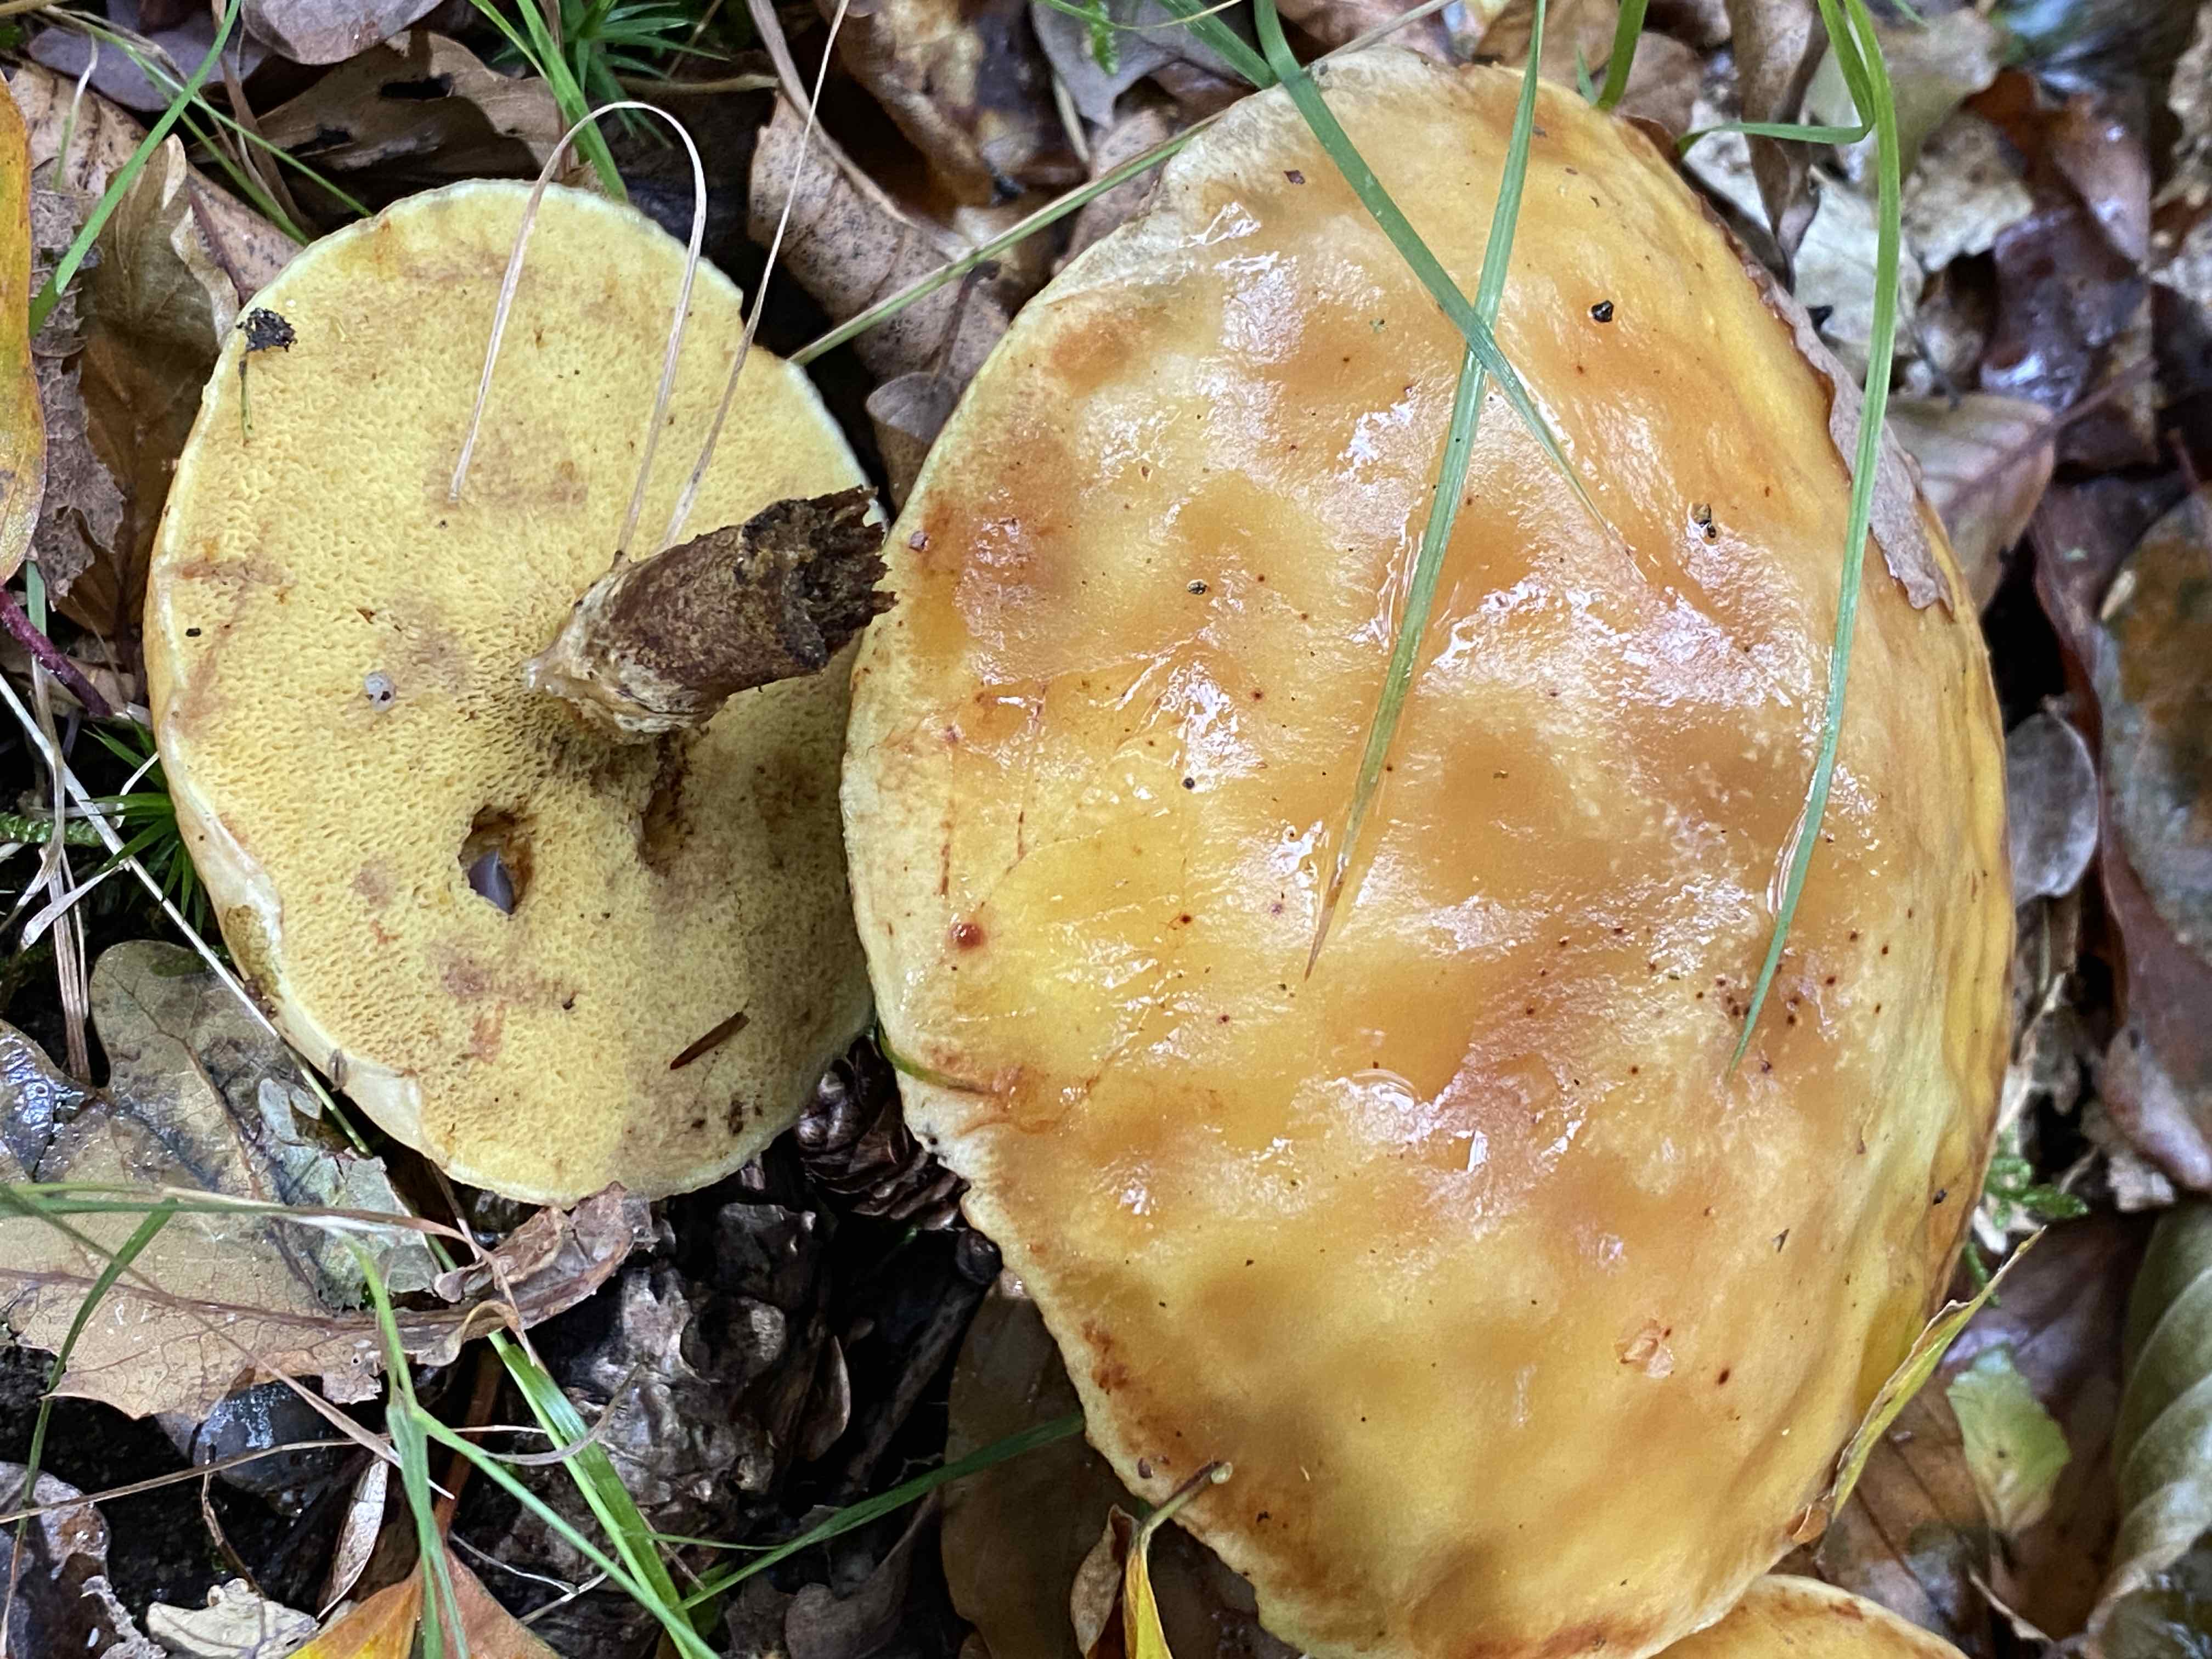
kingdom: Fungi
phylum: Basidiomycota
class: Agaricomycetes
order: Boletales
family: Suillaceae
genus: Suillus
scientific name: Suillus grevillei
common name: lærke-slimrørhat
